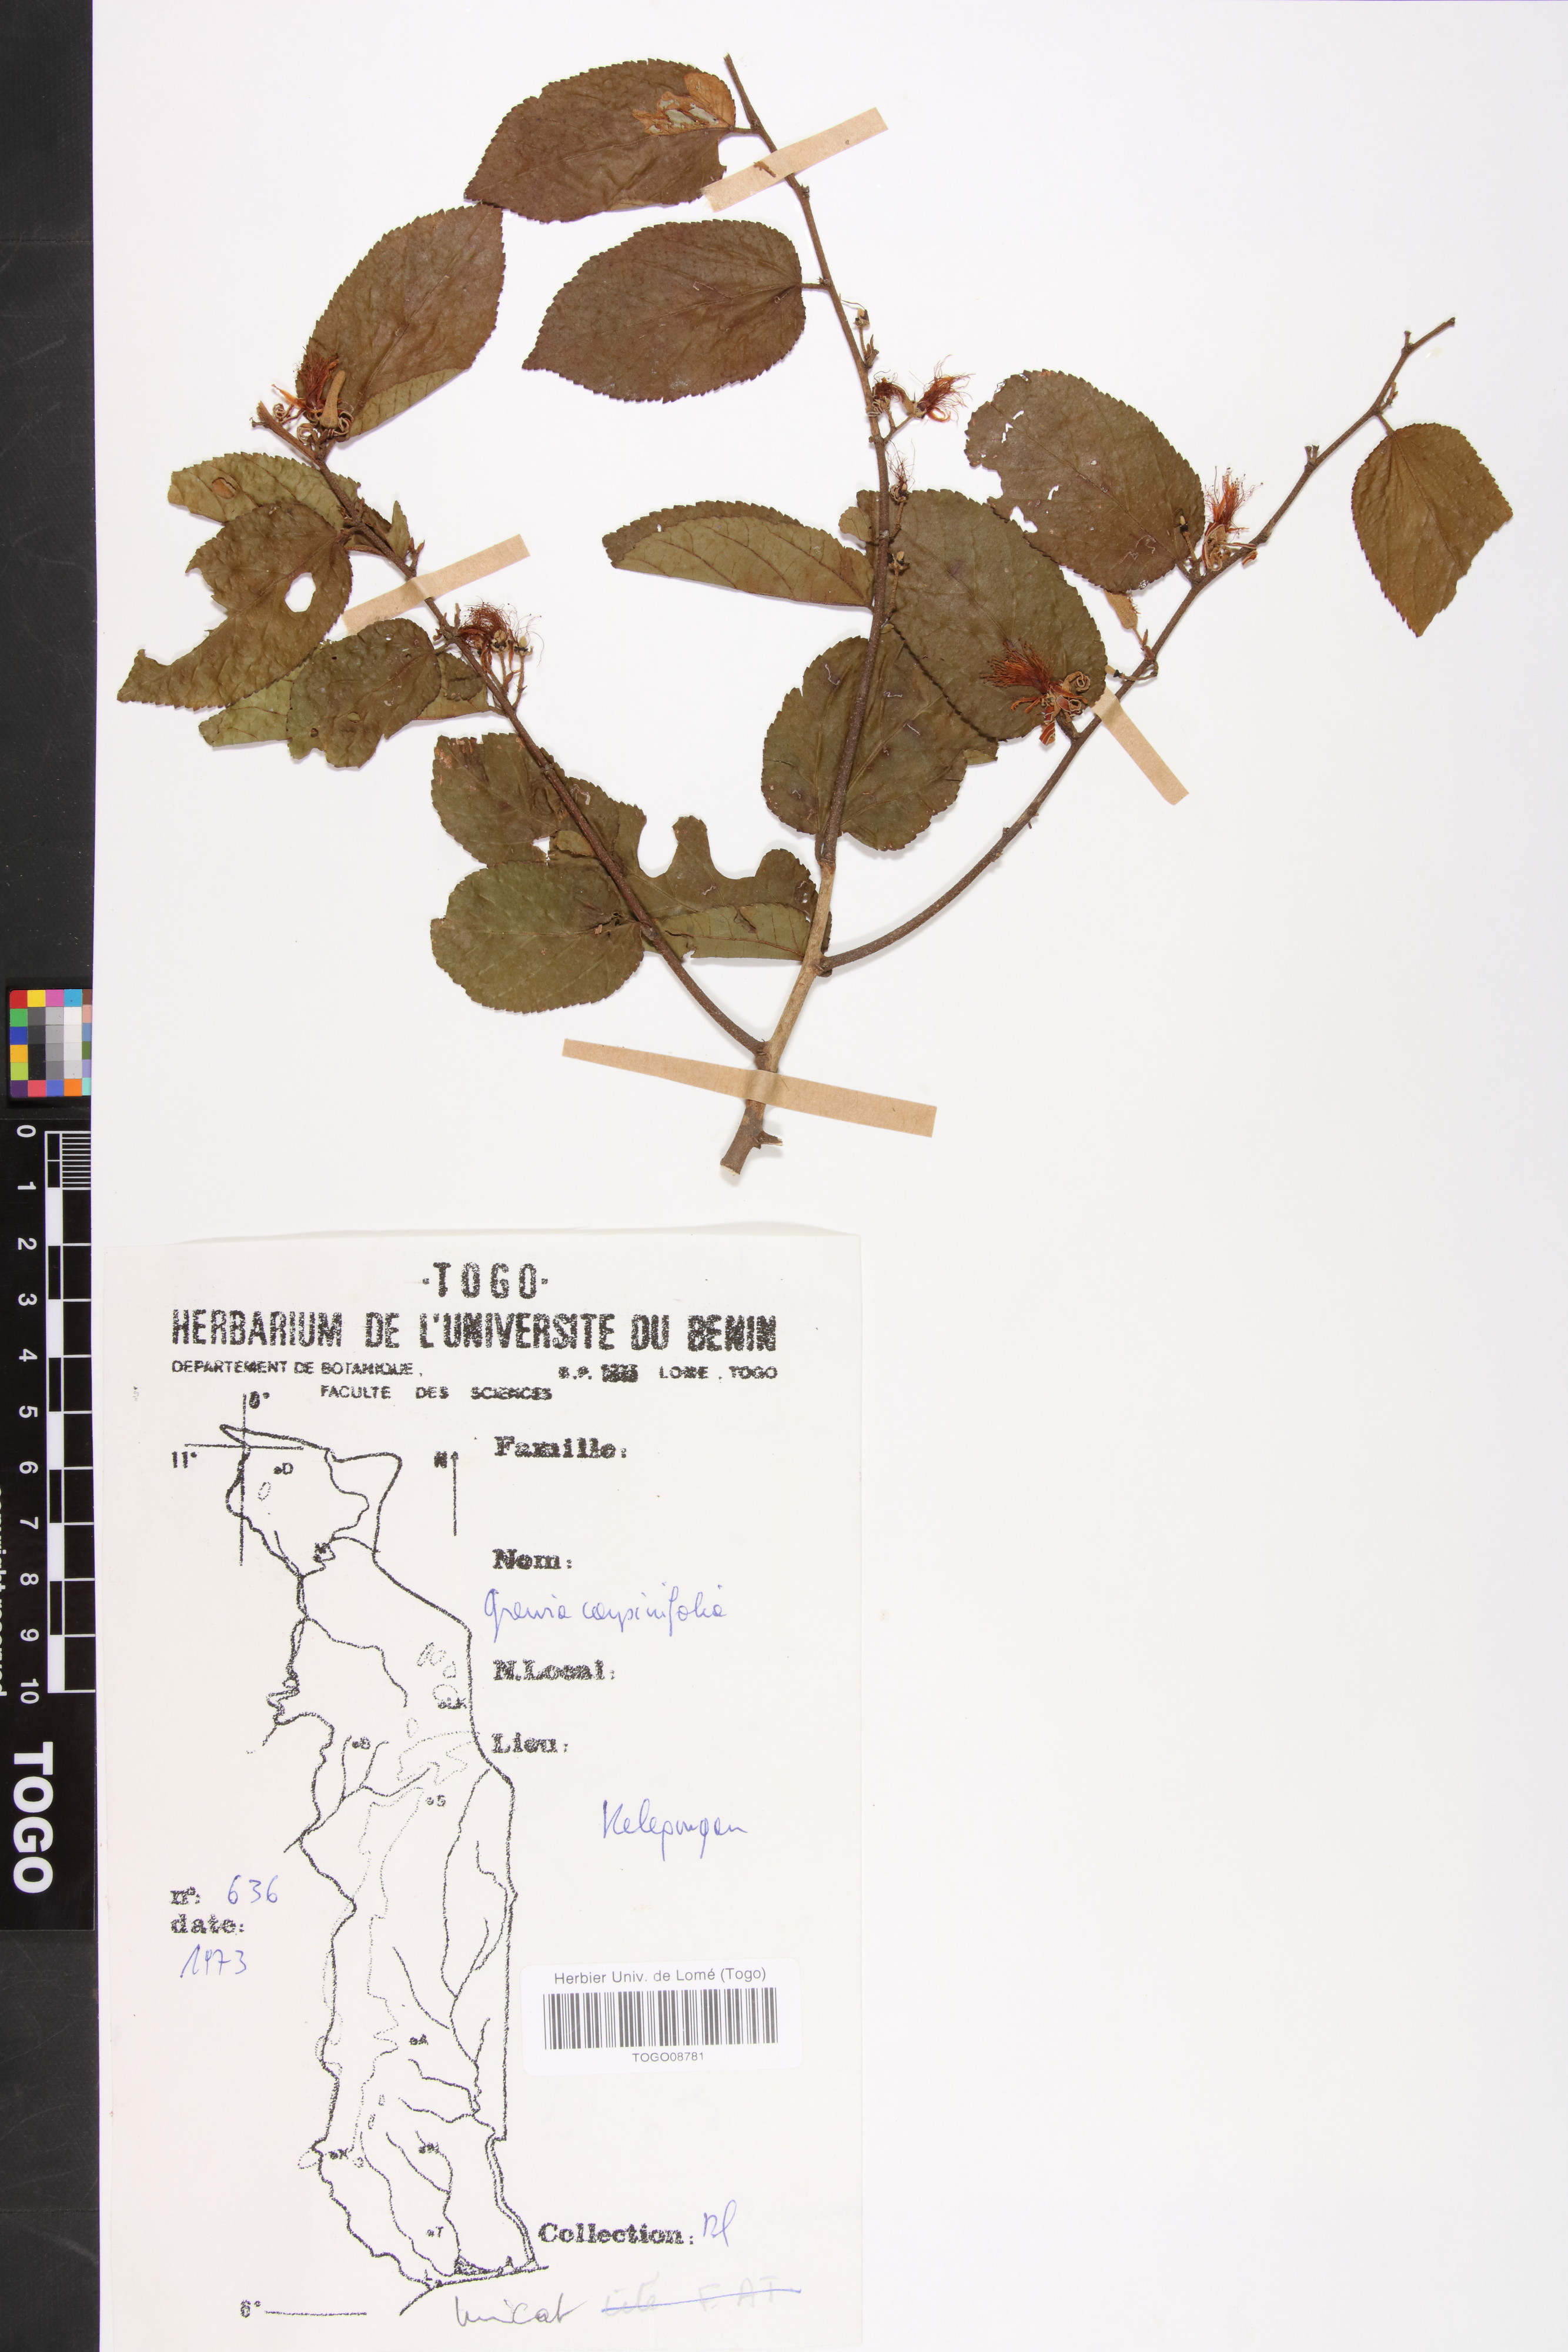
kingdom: Plantae
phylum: Tracheophyta
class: Magnoliopsida
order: Malvales
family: Malvaceae
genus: Grewia
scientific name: Grewia carpinifolia
